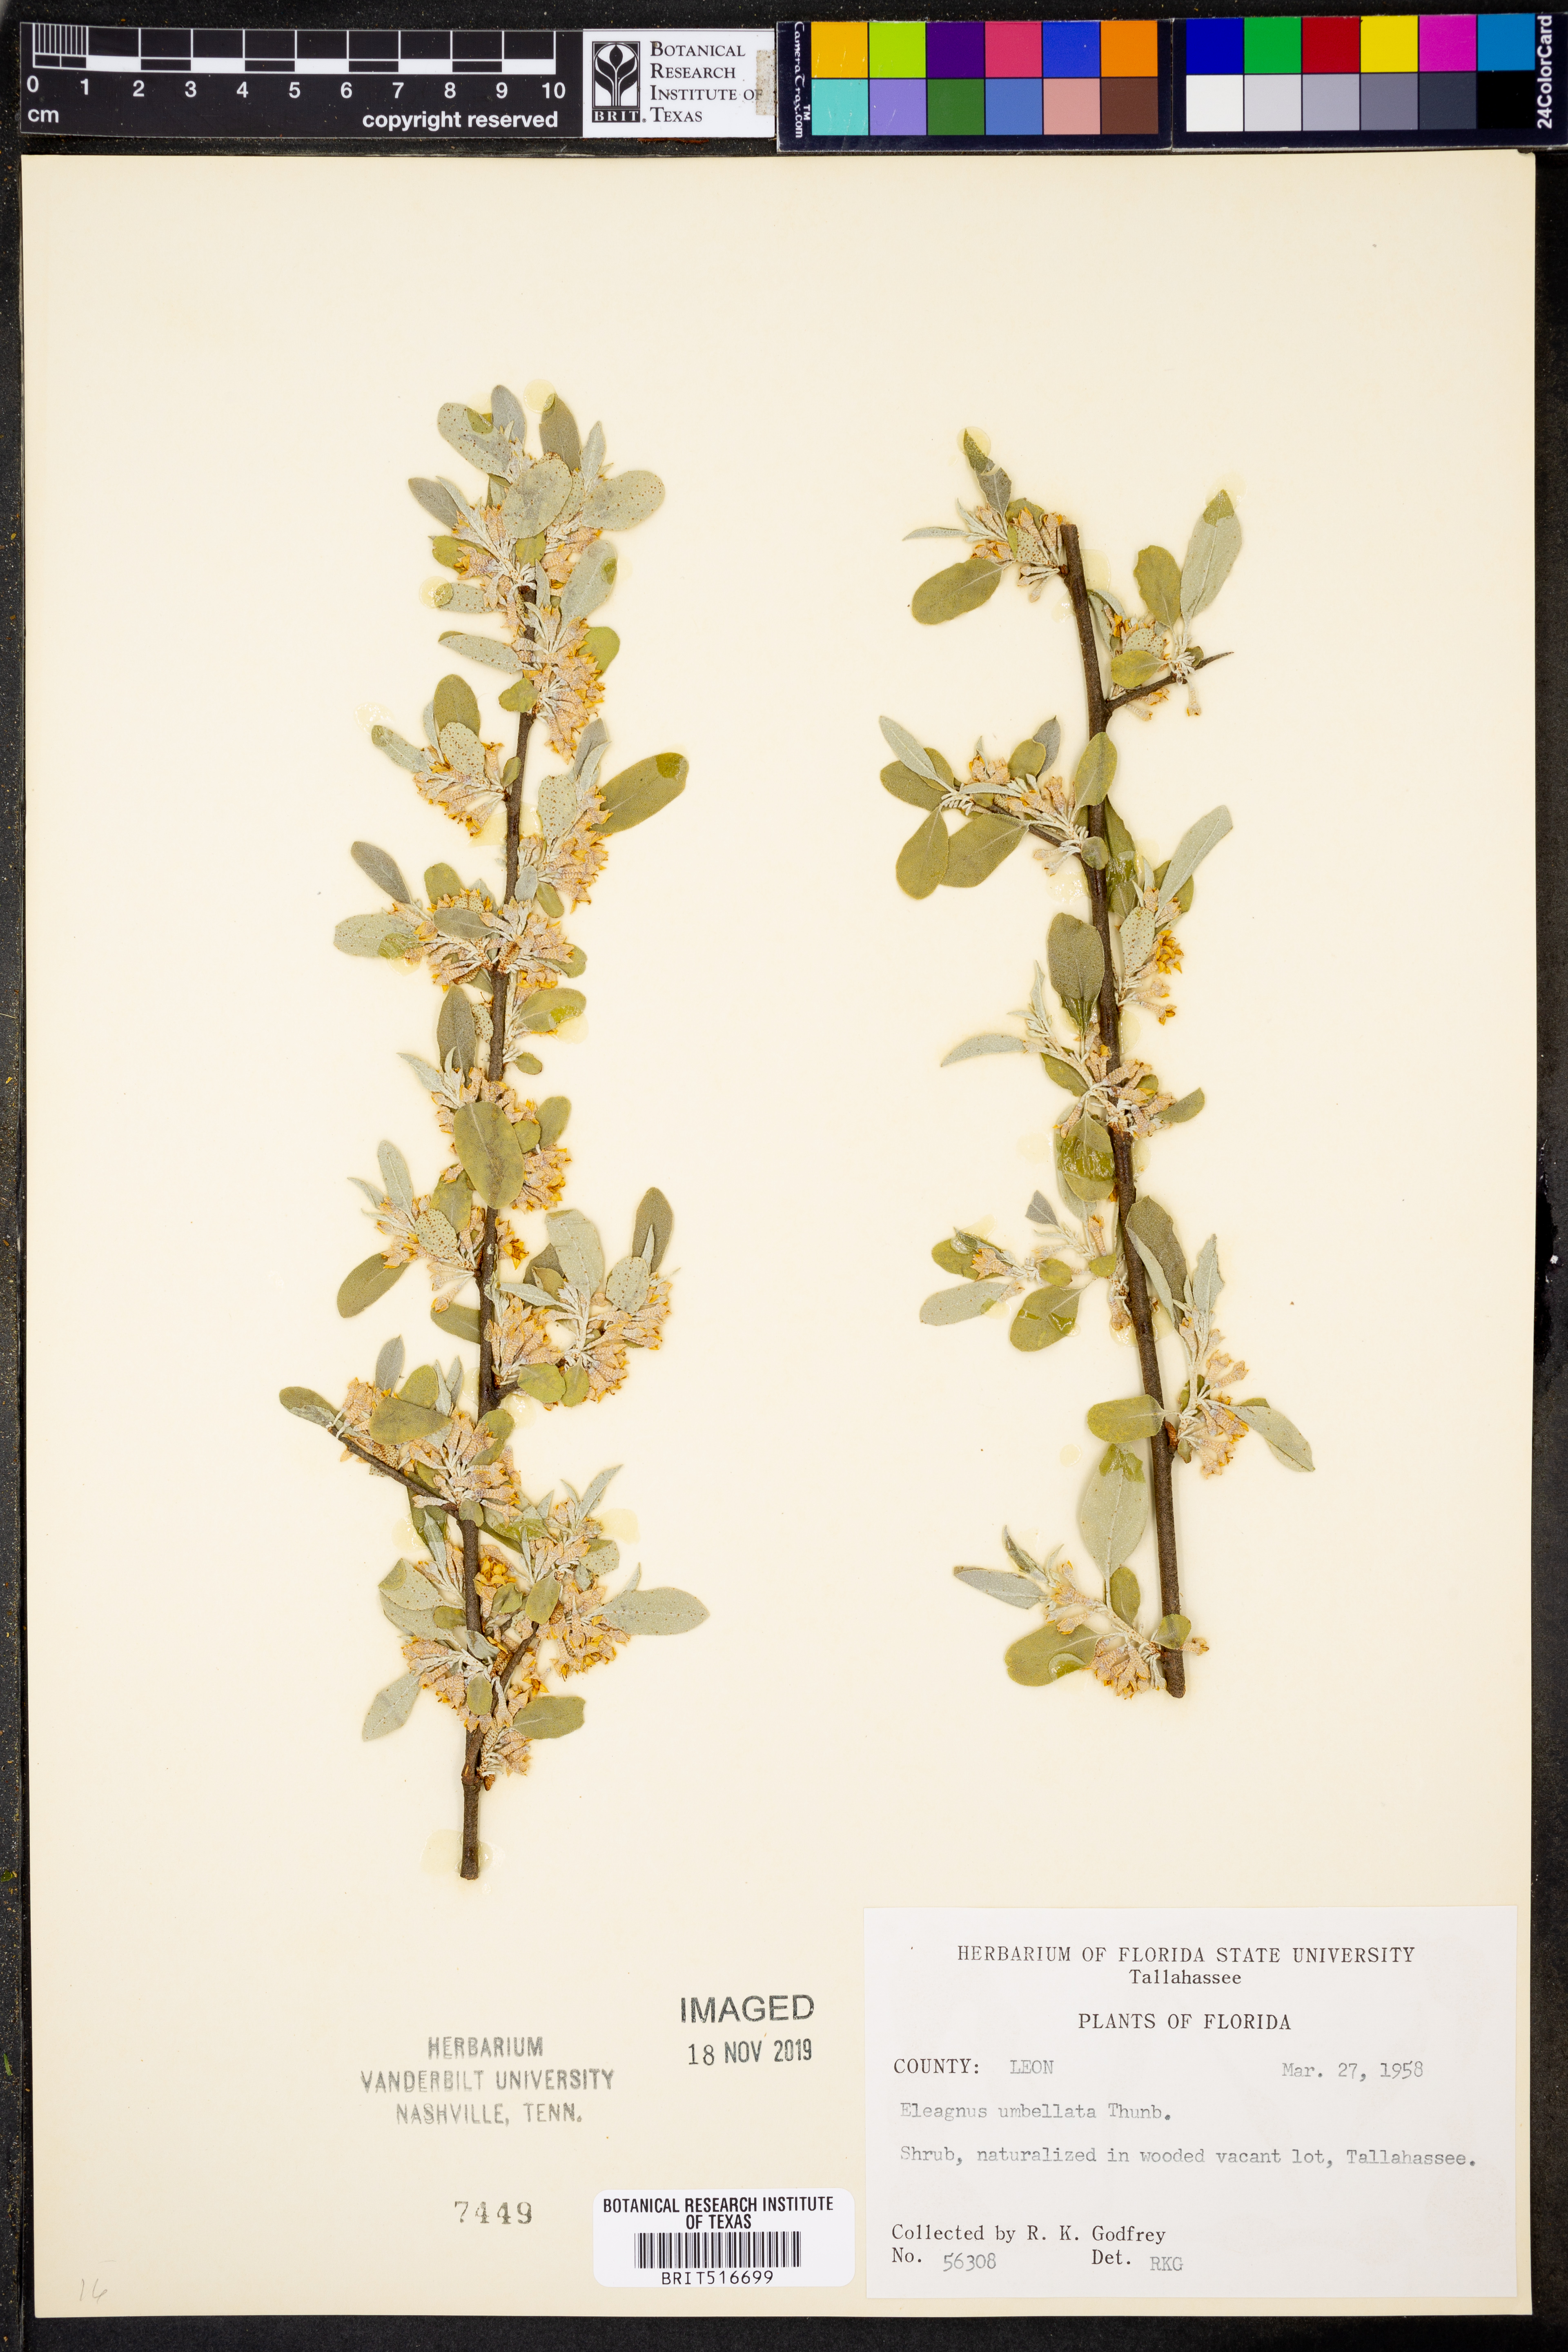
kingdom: Plantae
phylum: Tracheophyta
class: Magnoliopsida
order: Rosales
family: Elaeagnaceae
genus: Elaeagnus
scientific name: Elaeagnus umbellata
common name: Autumn olive
